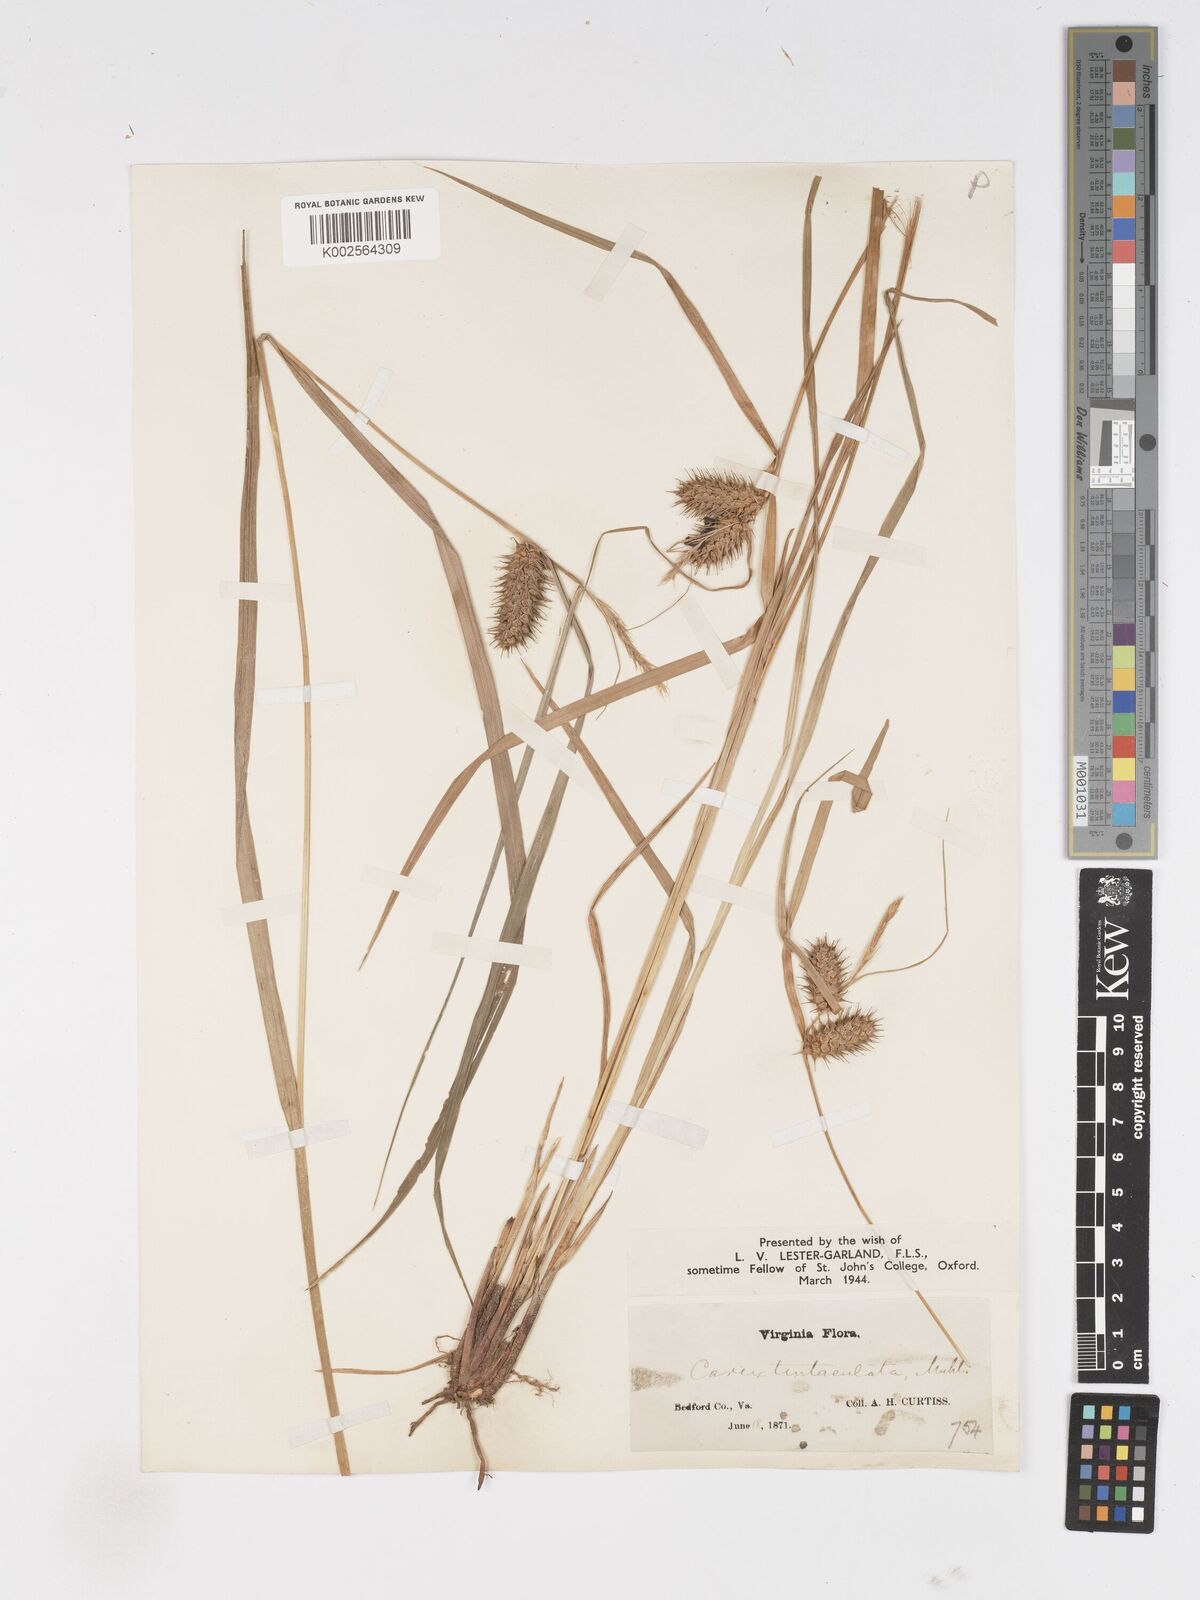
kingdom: Plantae
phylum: Tracheophyta
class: Liliopsida
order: Poales
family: Cyperaceae
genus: Carex
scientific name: Carex lurida
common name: Sallow sedge
